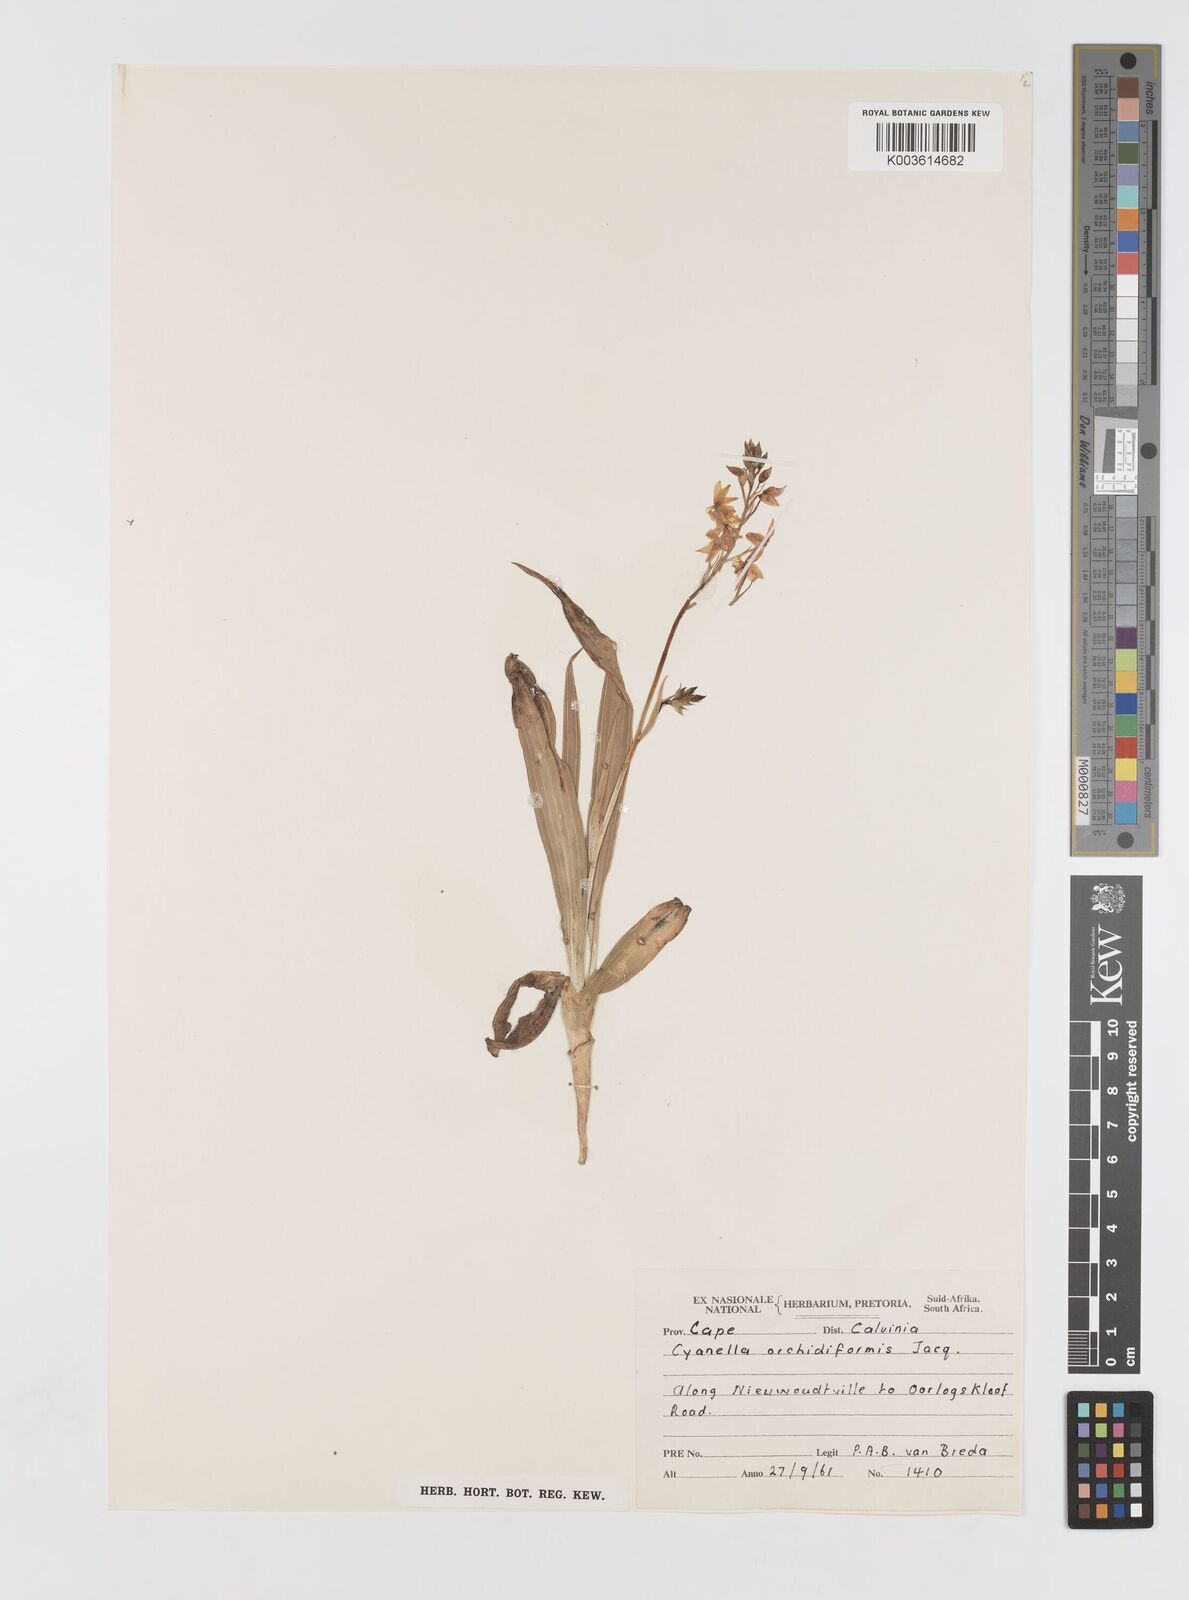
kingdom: Plantae
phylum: Tracheophyta
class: Liliopsida
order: Asparagales
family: Tecophilaeaceae
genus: Cyanella
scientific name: Cyanella orchidiformis
